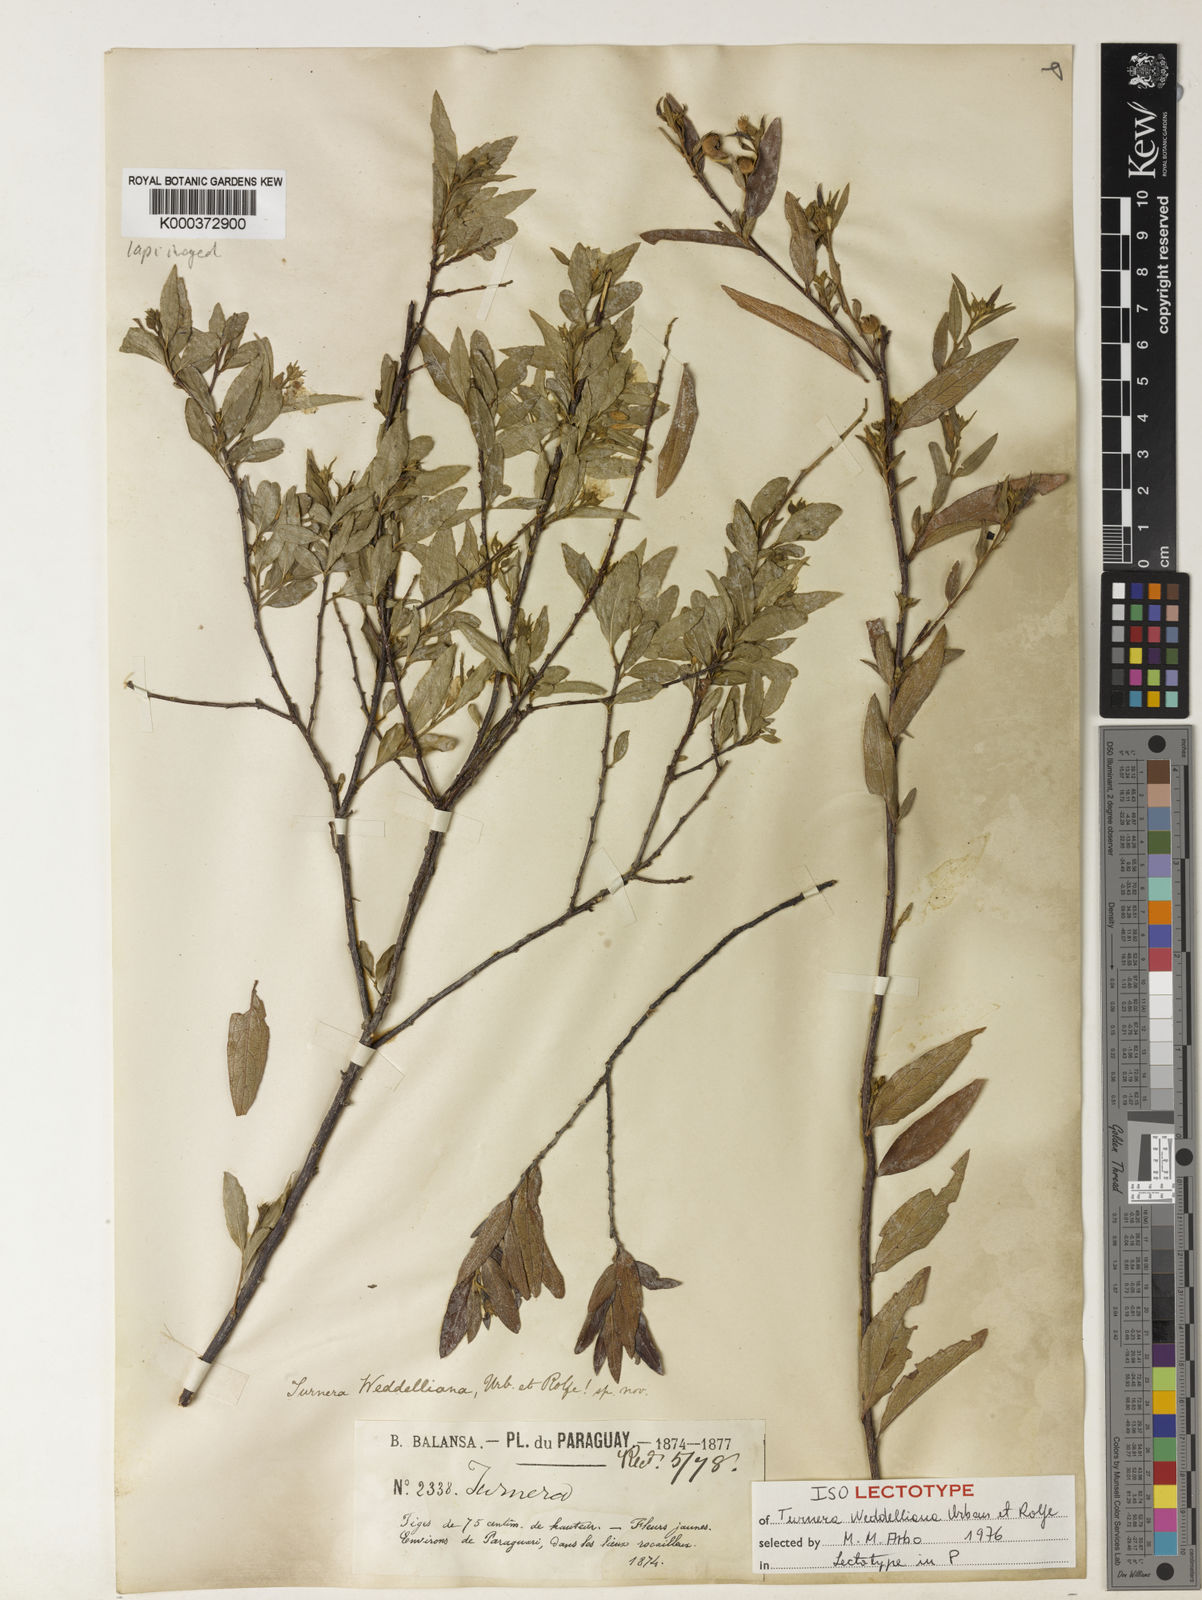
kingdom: Plantae
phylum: Tracheophyta
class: Magnoliopsida
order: Malpighiales
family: Turneraceae
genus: Turnera
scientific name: Turnera weddelliana
